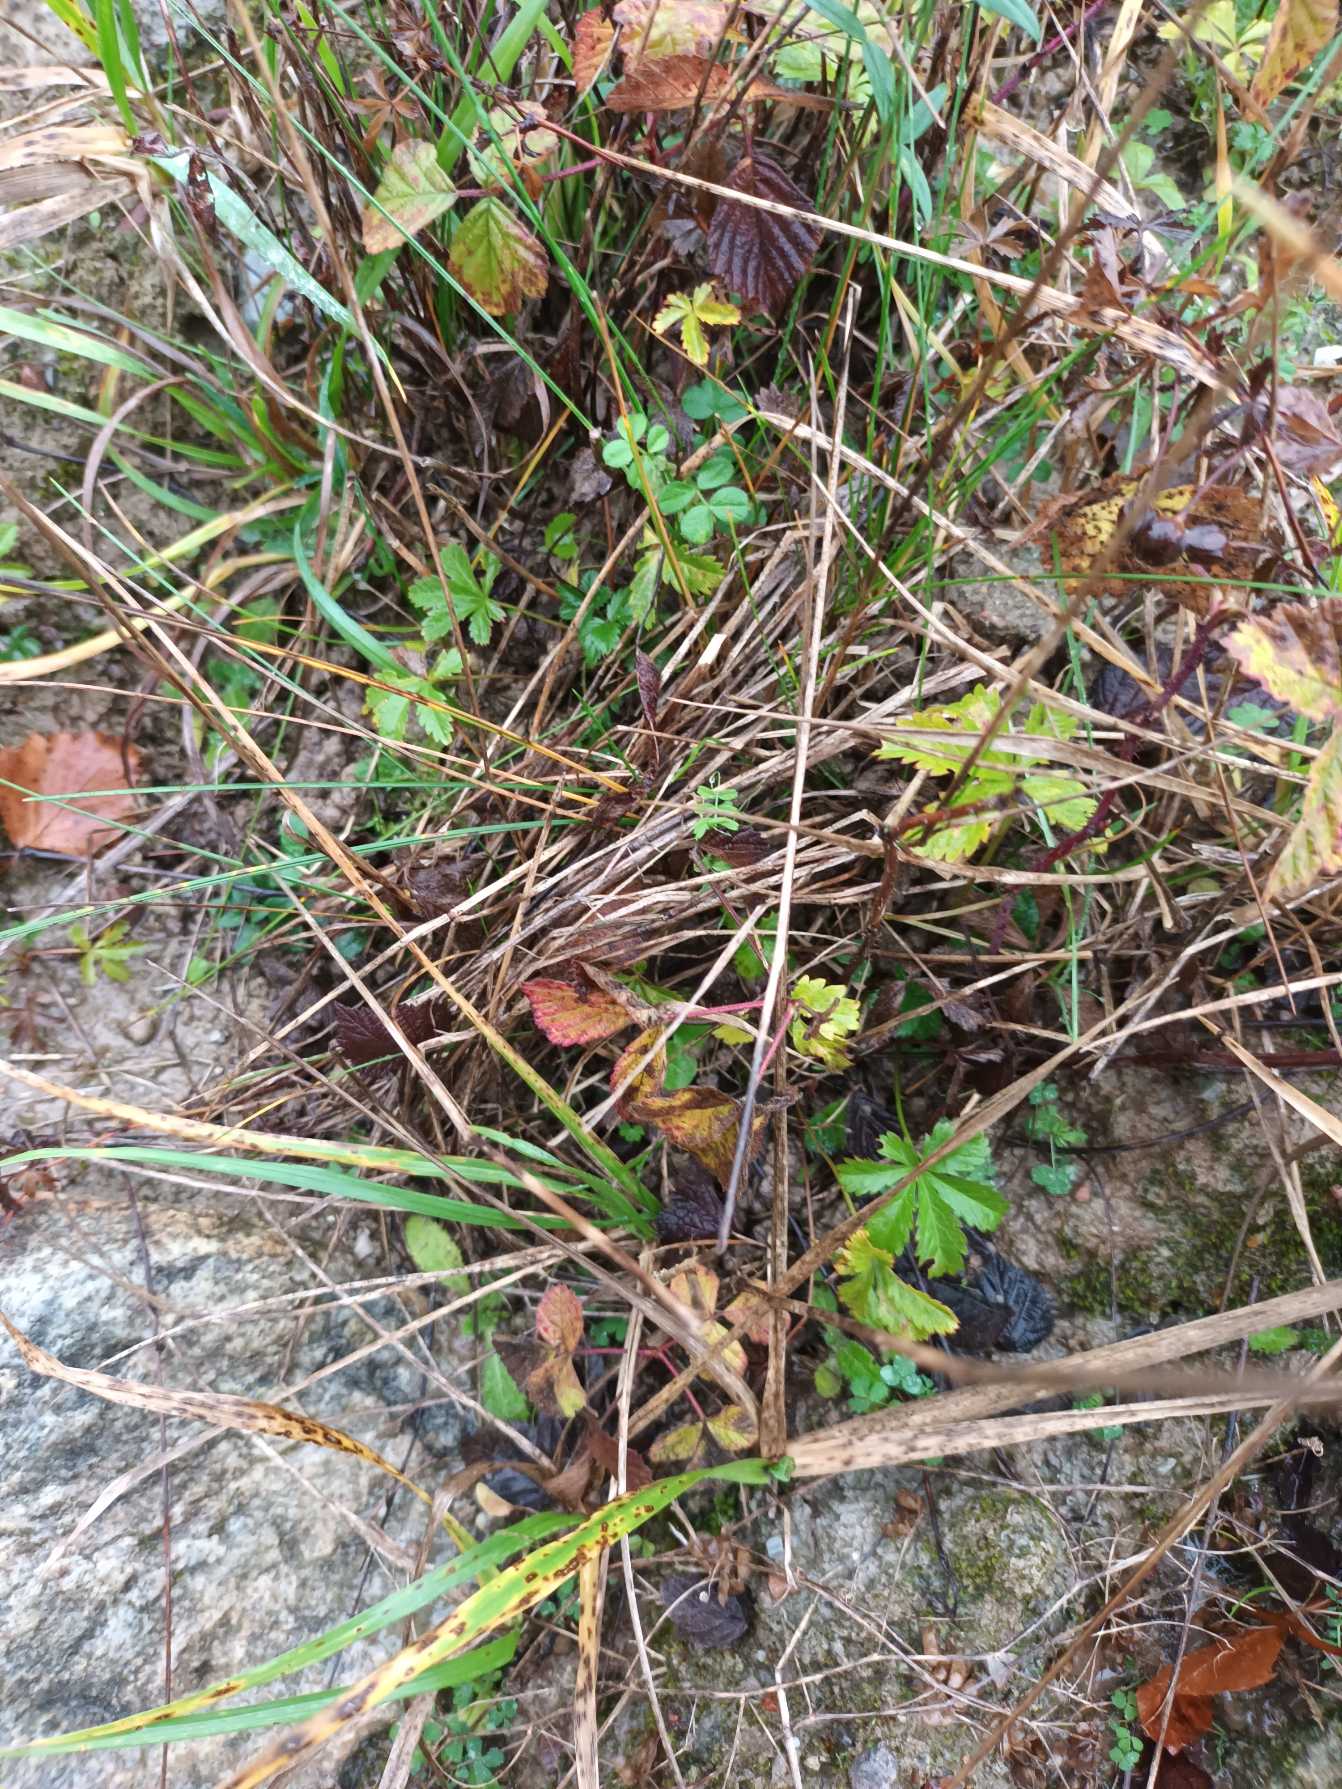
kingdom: Plantae
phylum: Tracheophyta
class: Magnoliopsida
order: Rosales
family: Rosaceae
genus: Potentilla
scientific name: Potentilla reptans
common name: Krybende potentil
